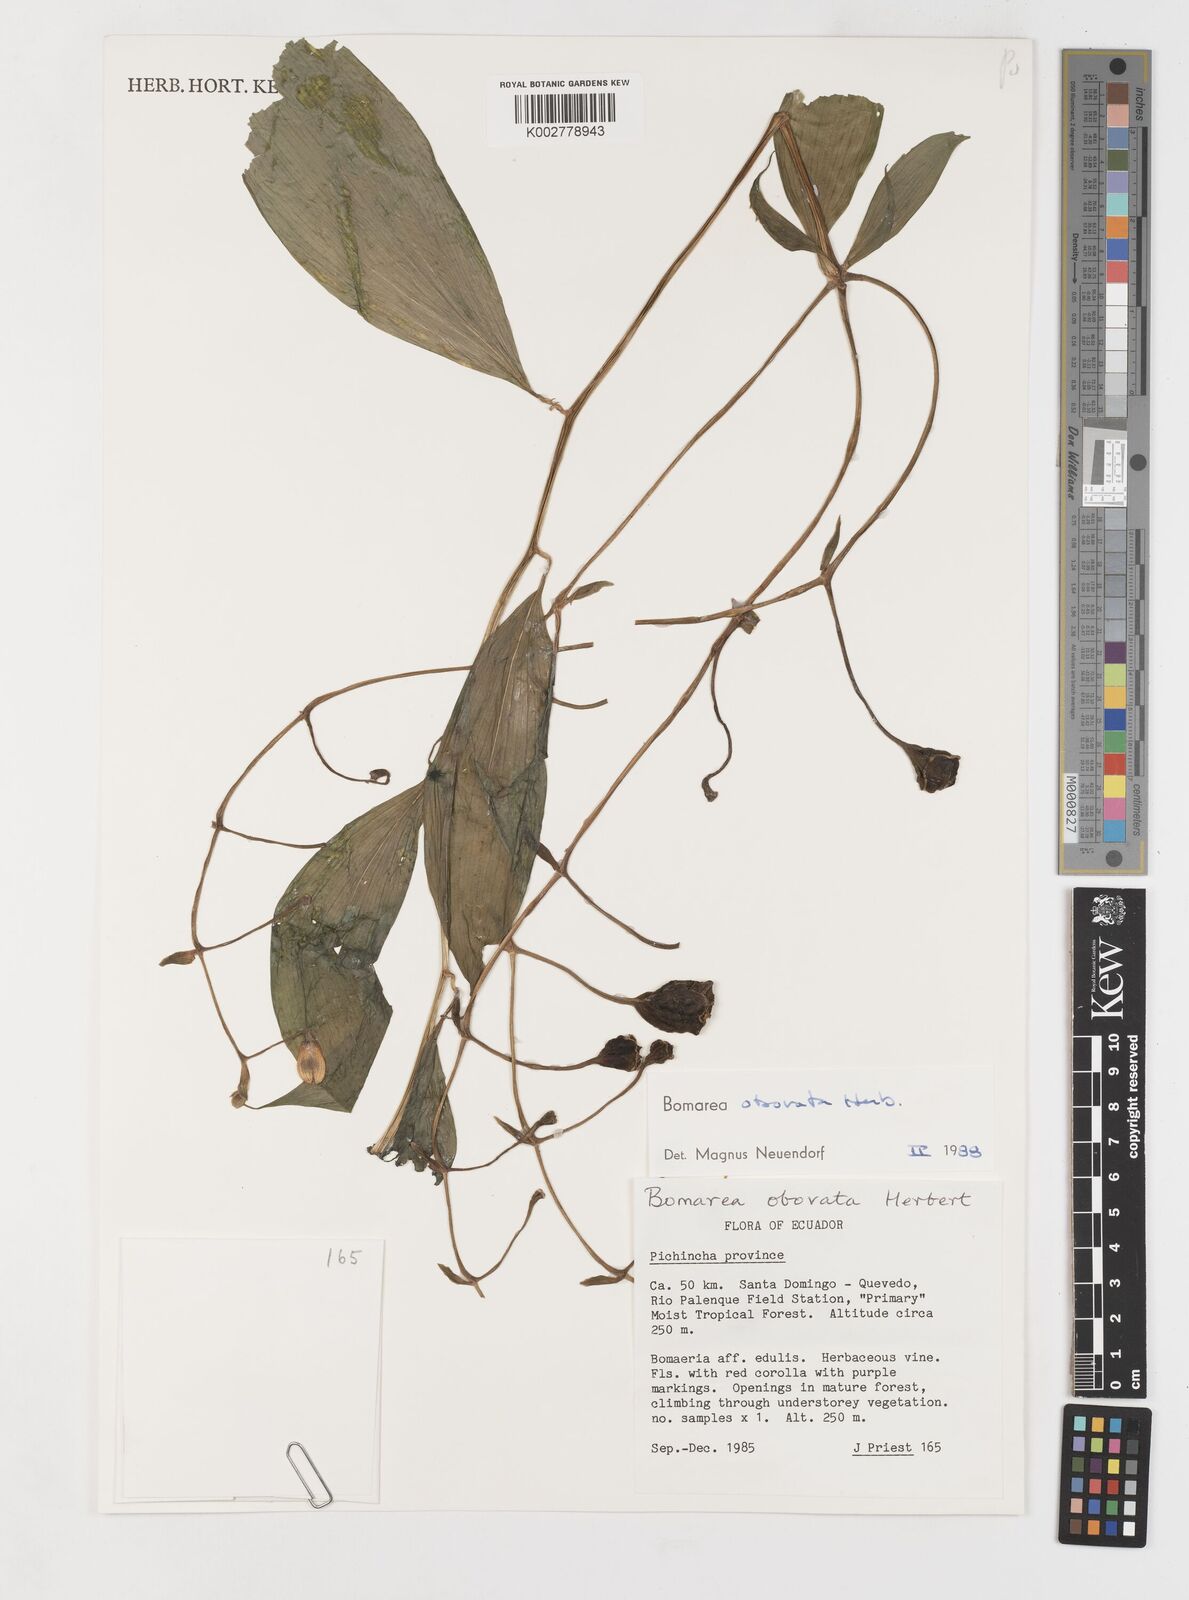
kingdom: Plantae
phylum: Tracheophyta
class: Liliopsida
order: Liliales
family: Alstroemeriaceae
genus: Bomarea
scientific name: Bomarea obovata
